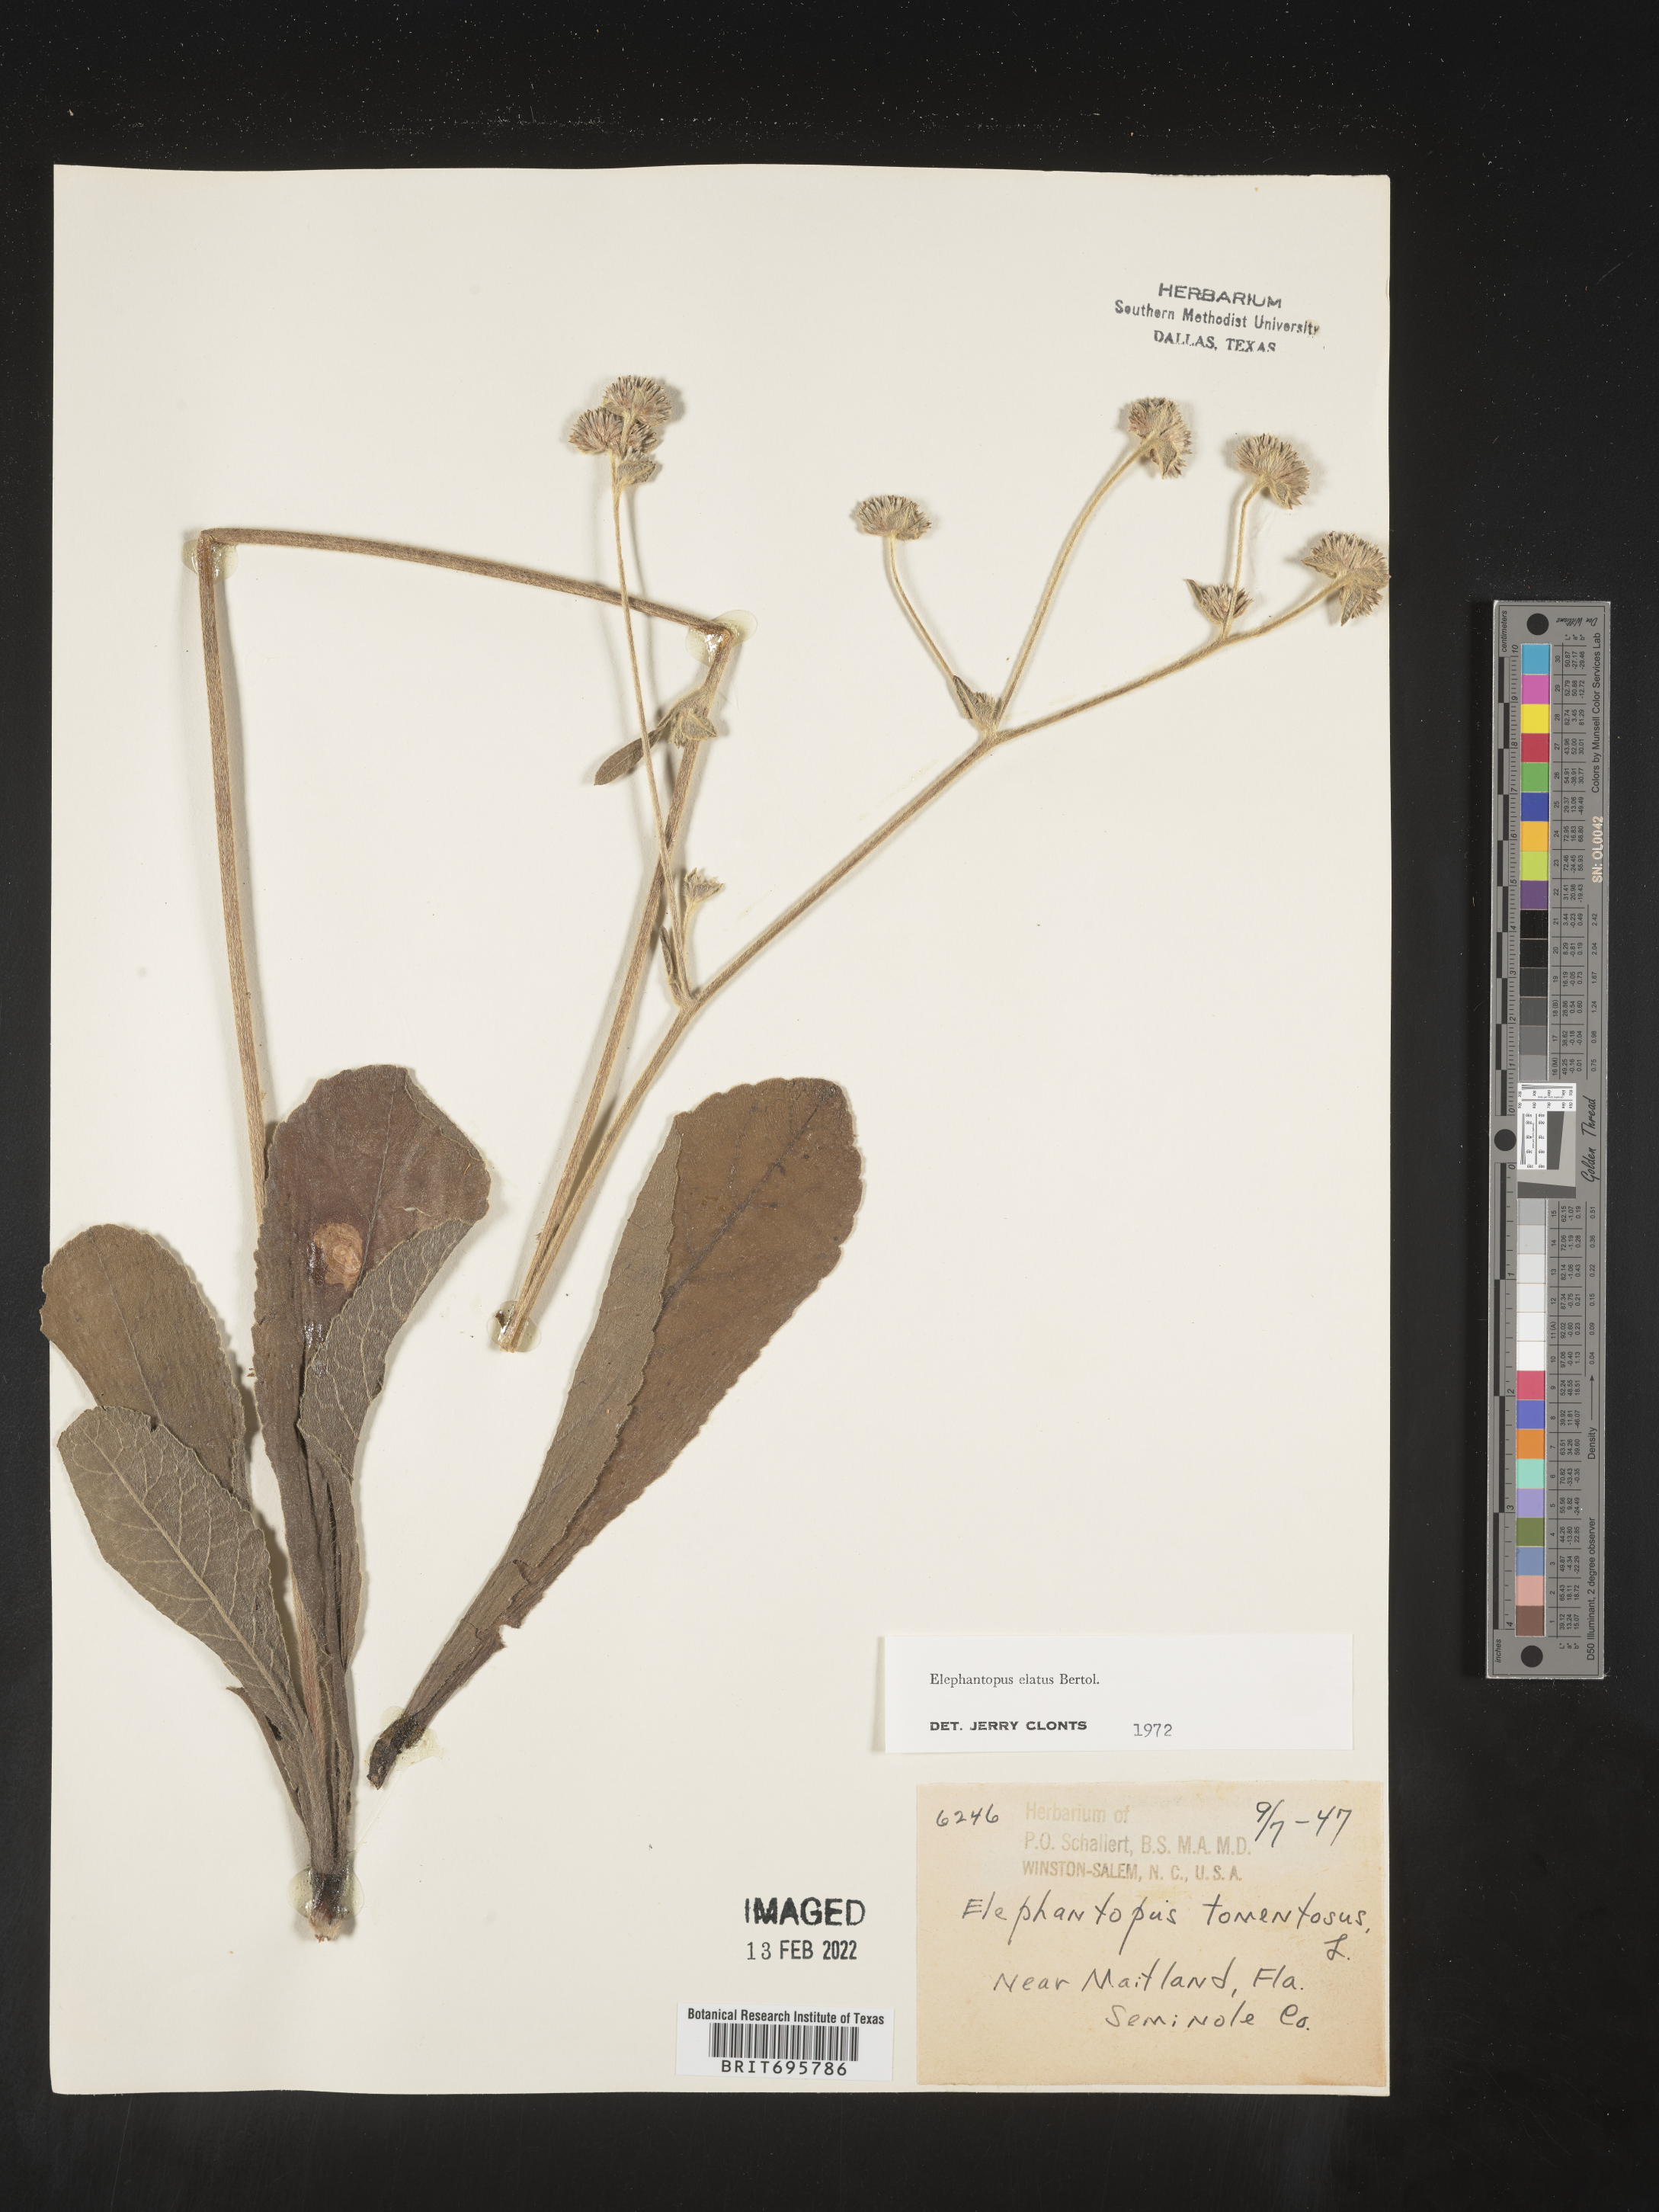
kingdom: Plantae
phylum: Tracheophyta
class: Magnoliopsida
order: Asterales
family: Asteraceae
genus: Elephantopus
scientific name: Elephantopus elatus
